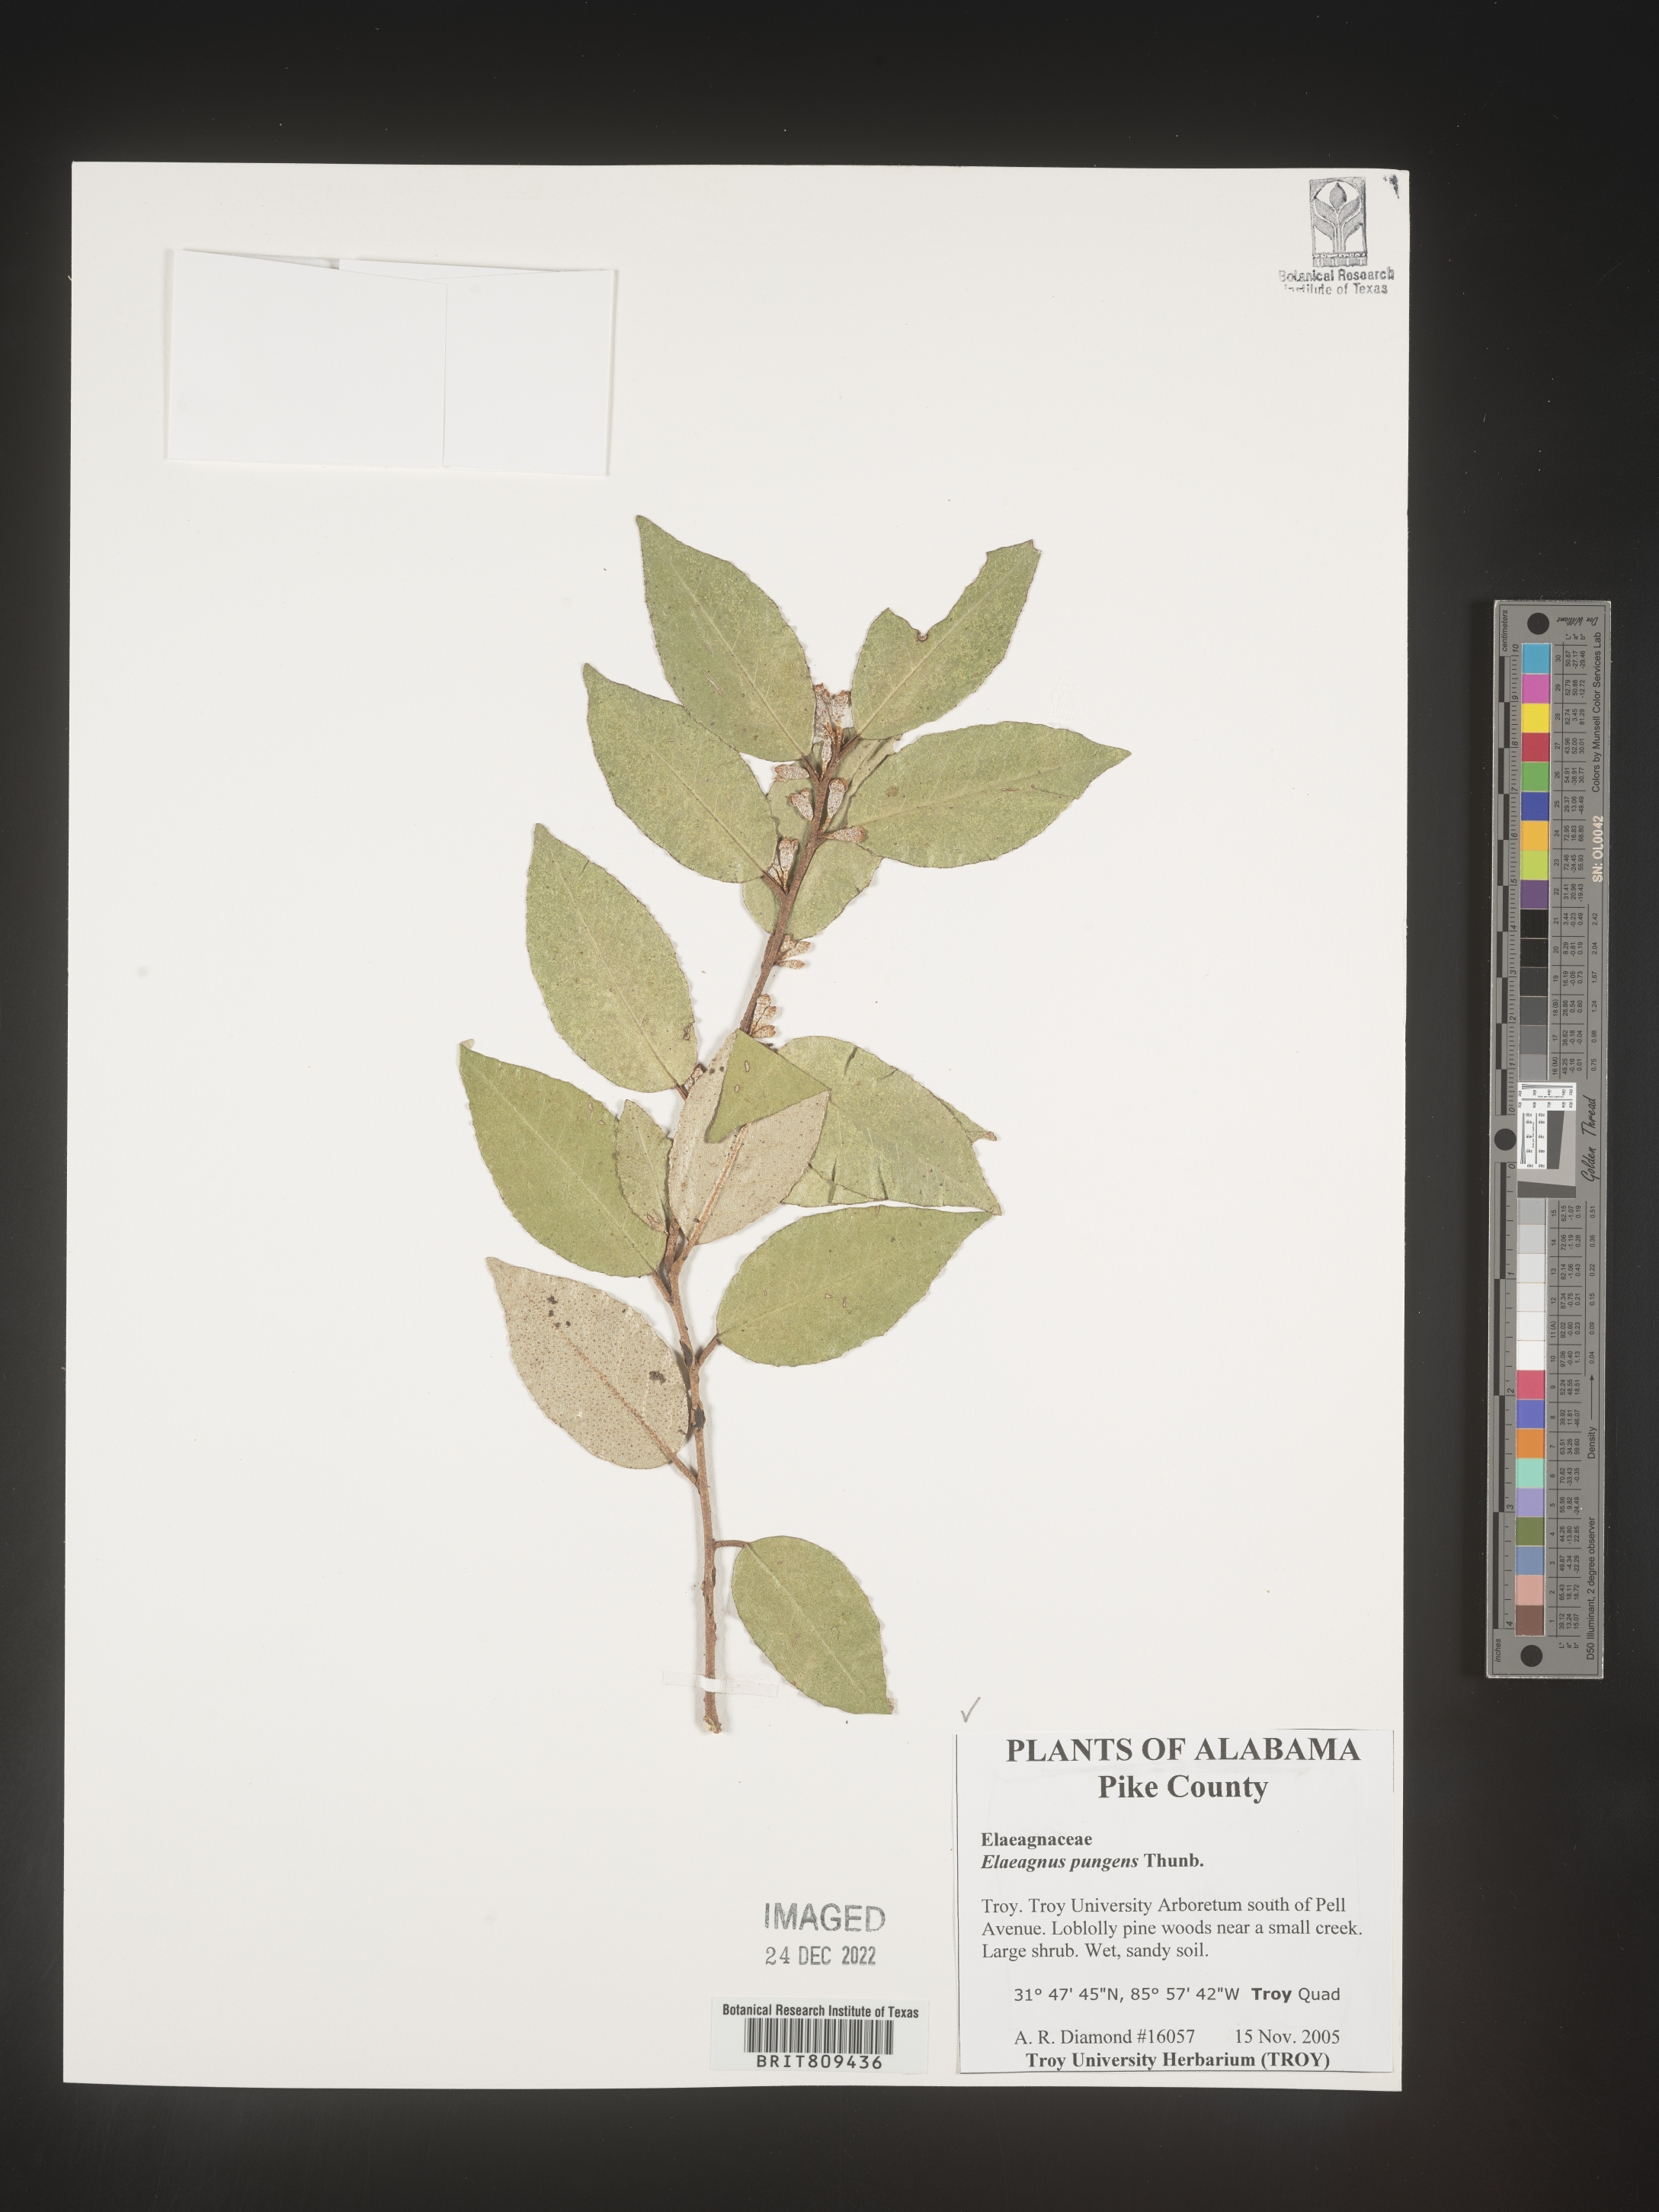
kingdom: Plantae
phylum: Tracheophyta
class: Magnoliopsida
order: Rosales
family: Elaeagnaceae
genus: Elaeagnus
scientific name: Elaeagnus
